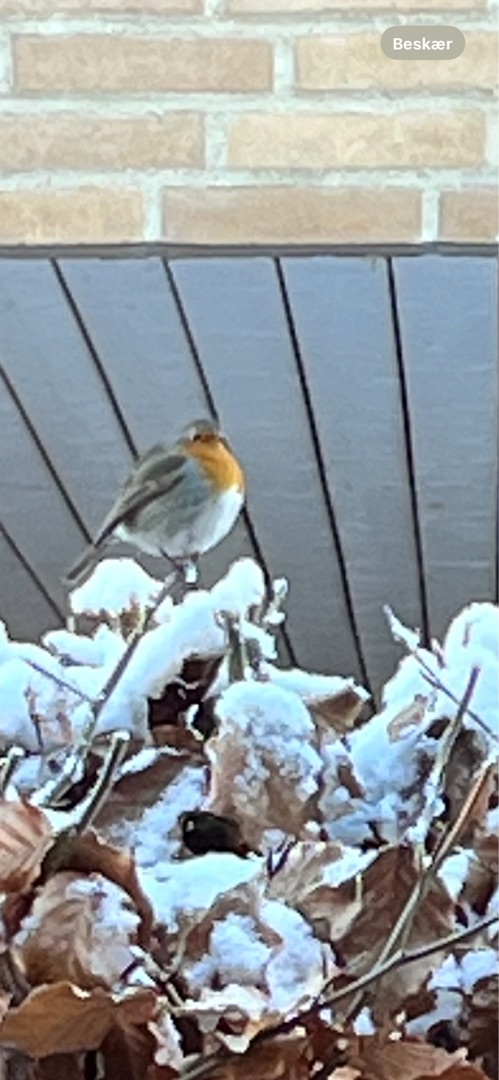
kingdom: Animalia
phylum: Chordata
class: Aves
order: Passeriformes
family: Muscicapidae
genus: Erithacus
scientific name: Erithacus rubecula
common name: Rødhals/rødkælk
